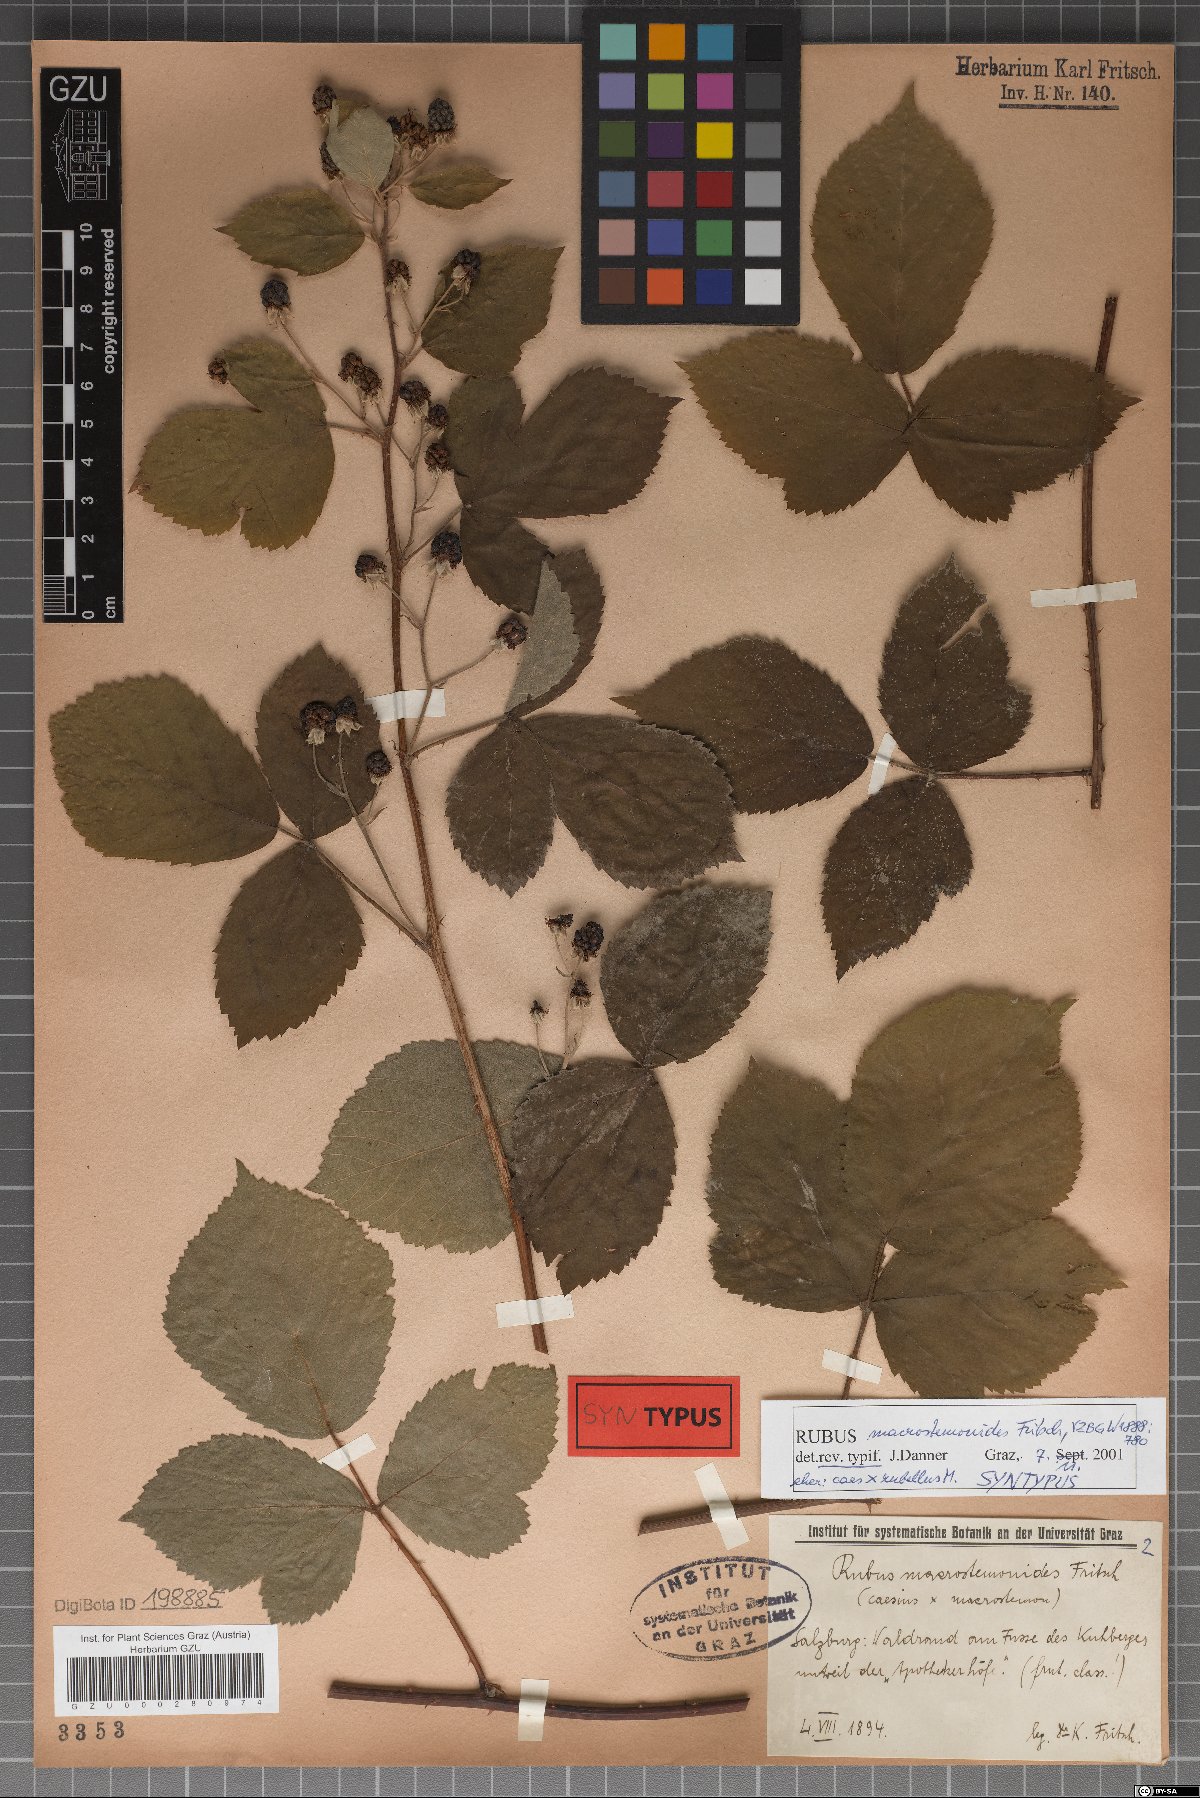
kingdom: Plantae
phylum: Tracheophyta
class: Magnoliopsida
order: Rosales
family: Rosaceae
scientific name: Rosaceae
